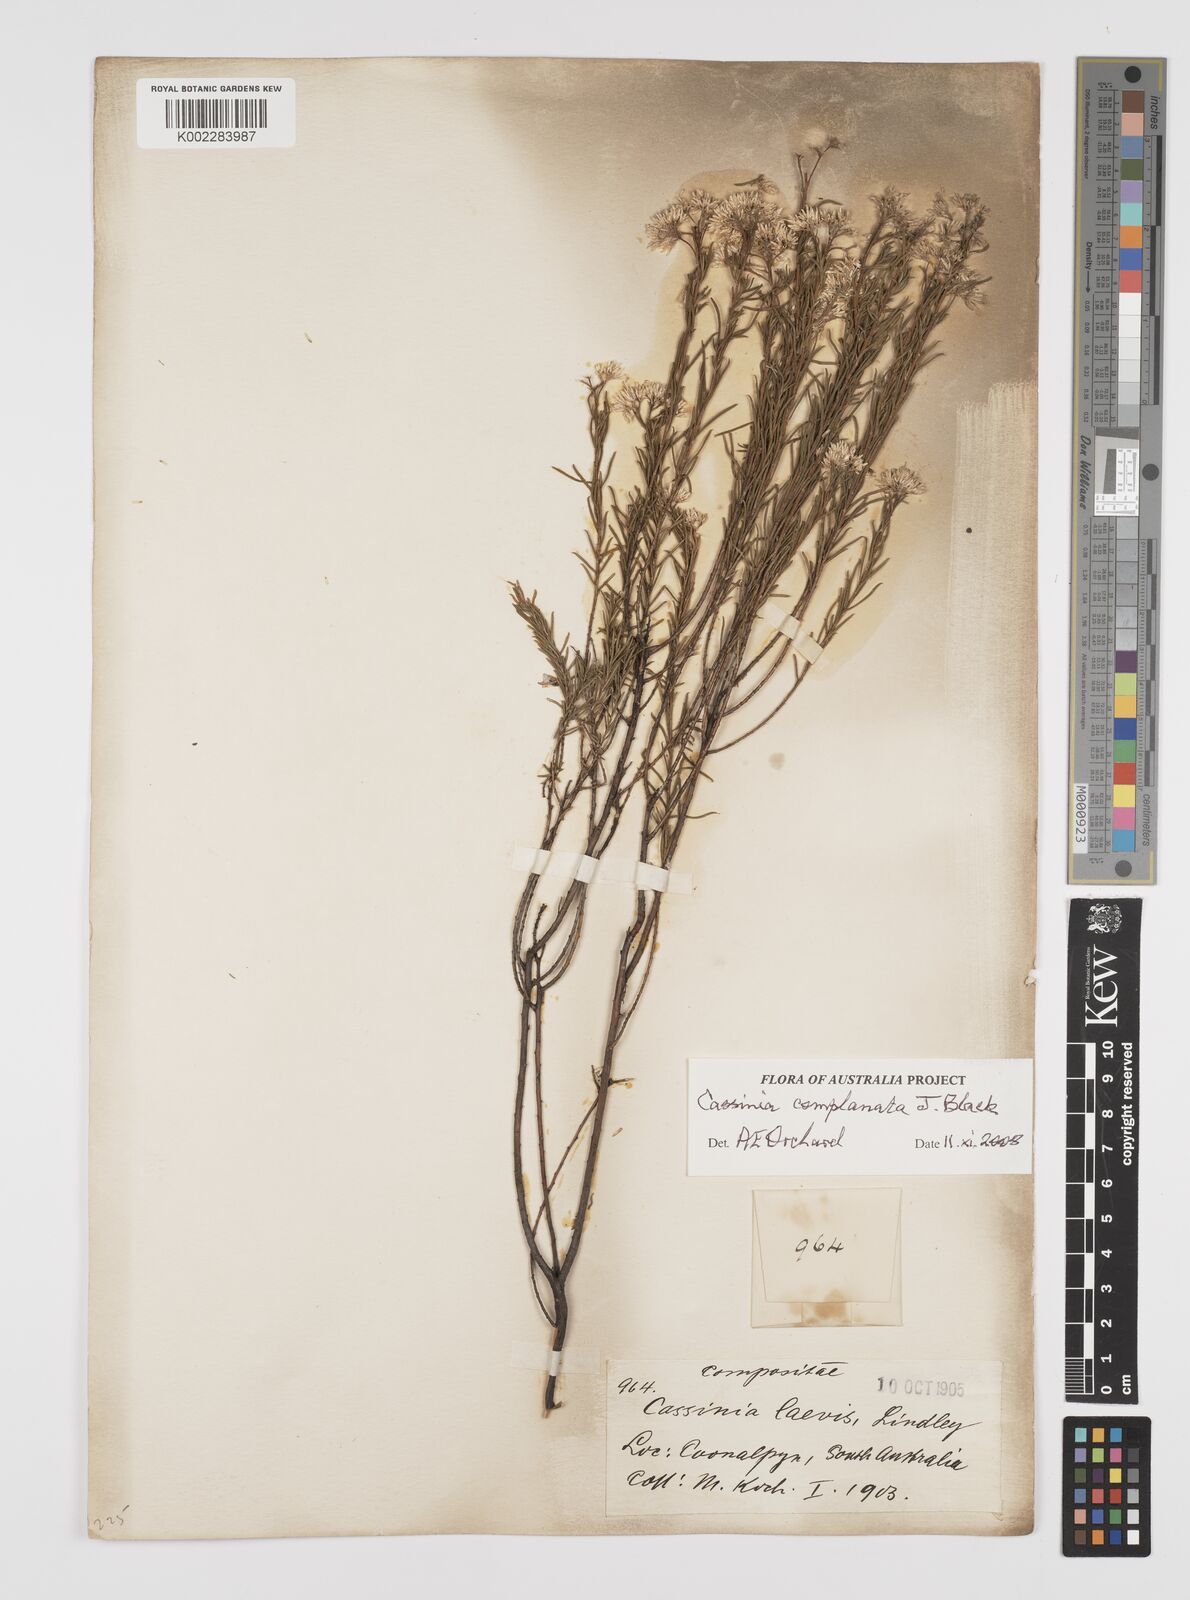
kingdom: Plantae
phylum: Tracheophyta
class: Magnoliopsida
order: Asterales
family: Asteraceae
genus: Cassinia
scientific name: Cassinia complanata
